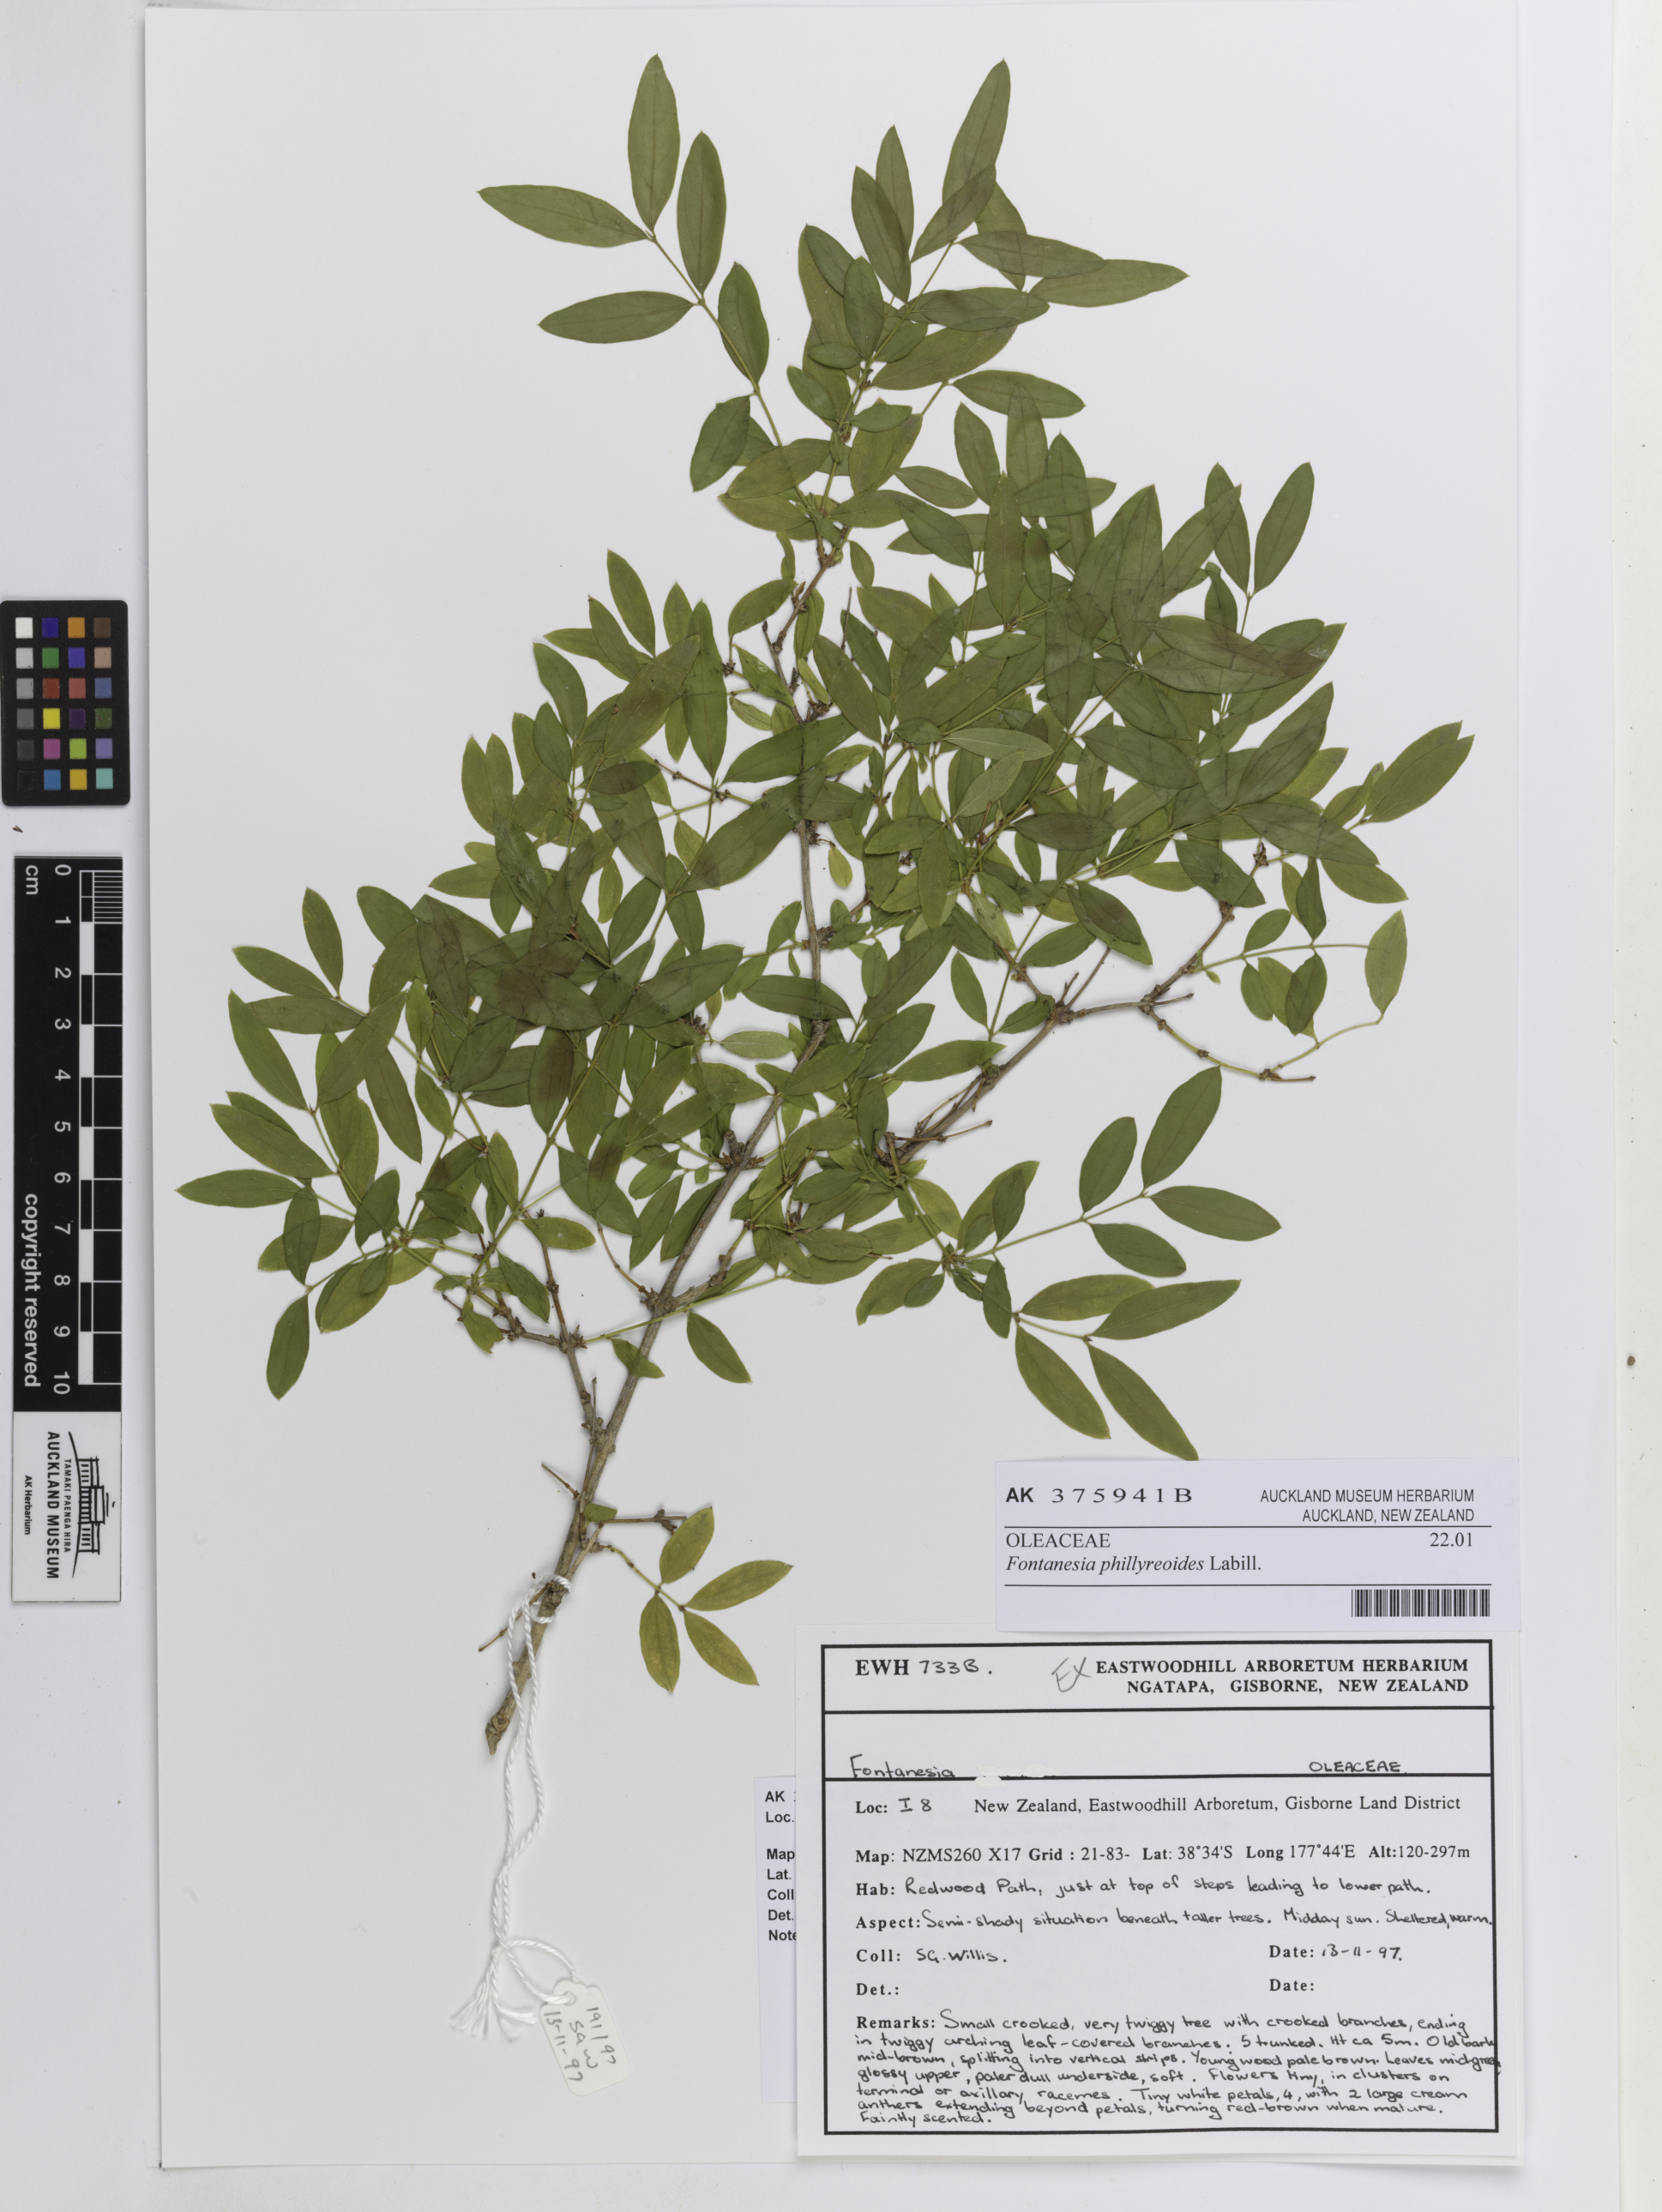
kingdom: Plantae
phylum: Tracheophyta
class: Magnoliopsida
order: Lamiales
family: Oleaceae
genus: Fontanesia
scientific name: Fontanesia phillyreoides
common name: Syrian-privet
